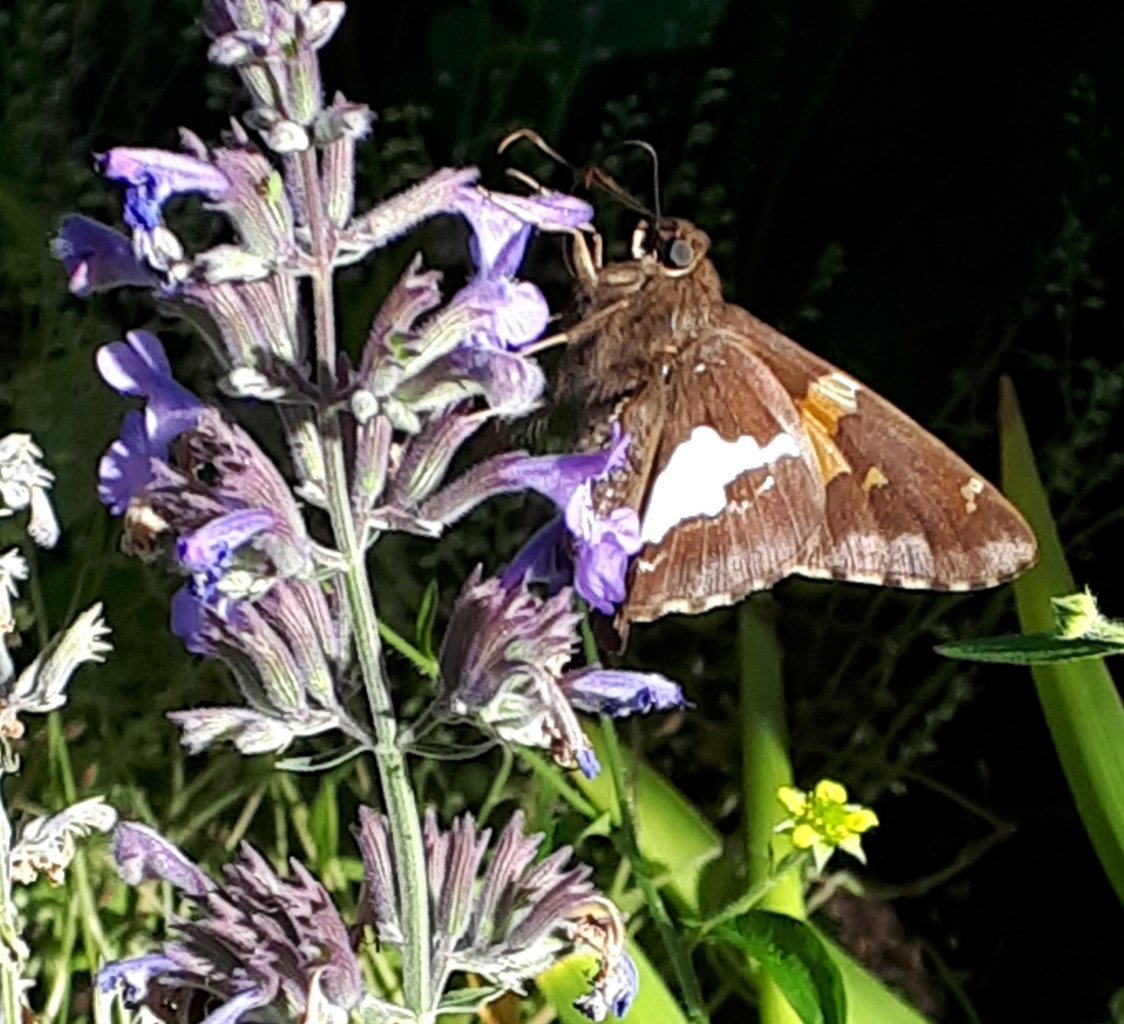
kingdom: Animalia
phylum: Arthropoda
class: Insecta
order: Lepidoptera
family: Hesperiidae
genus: Epargyreus
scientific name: Epargyreus clarus
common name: Silver-spotted Skipper
